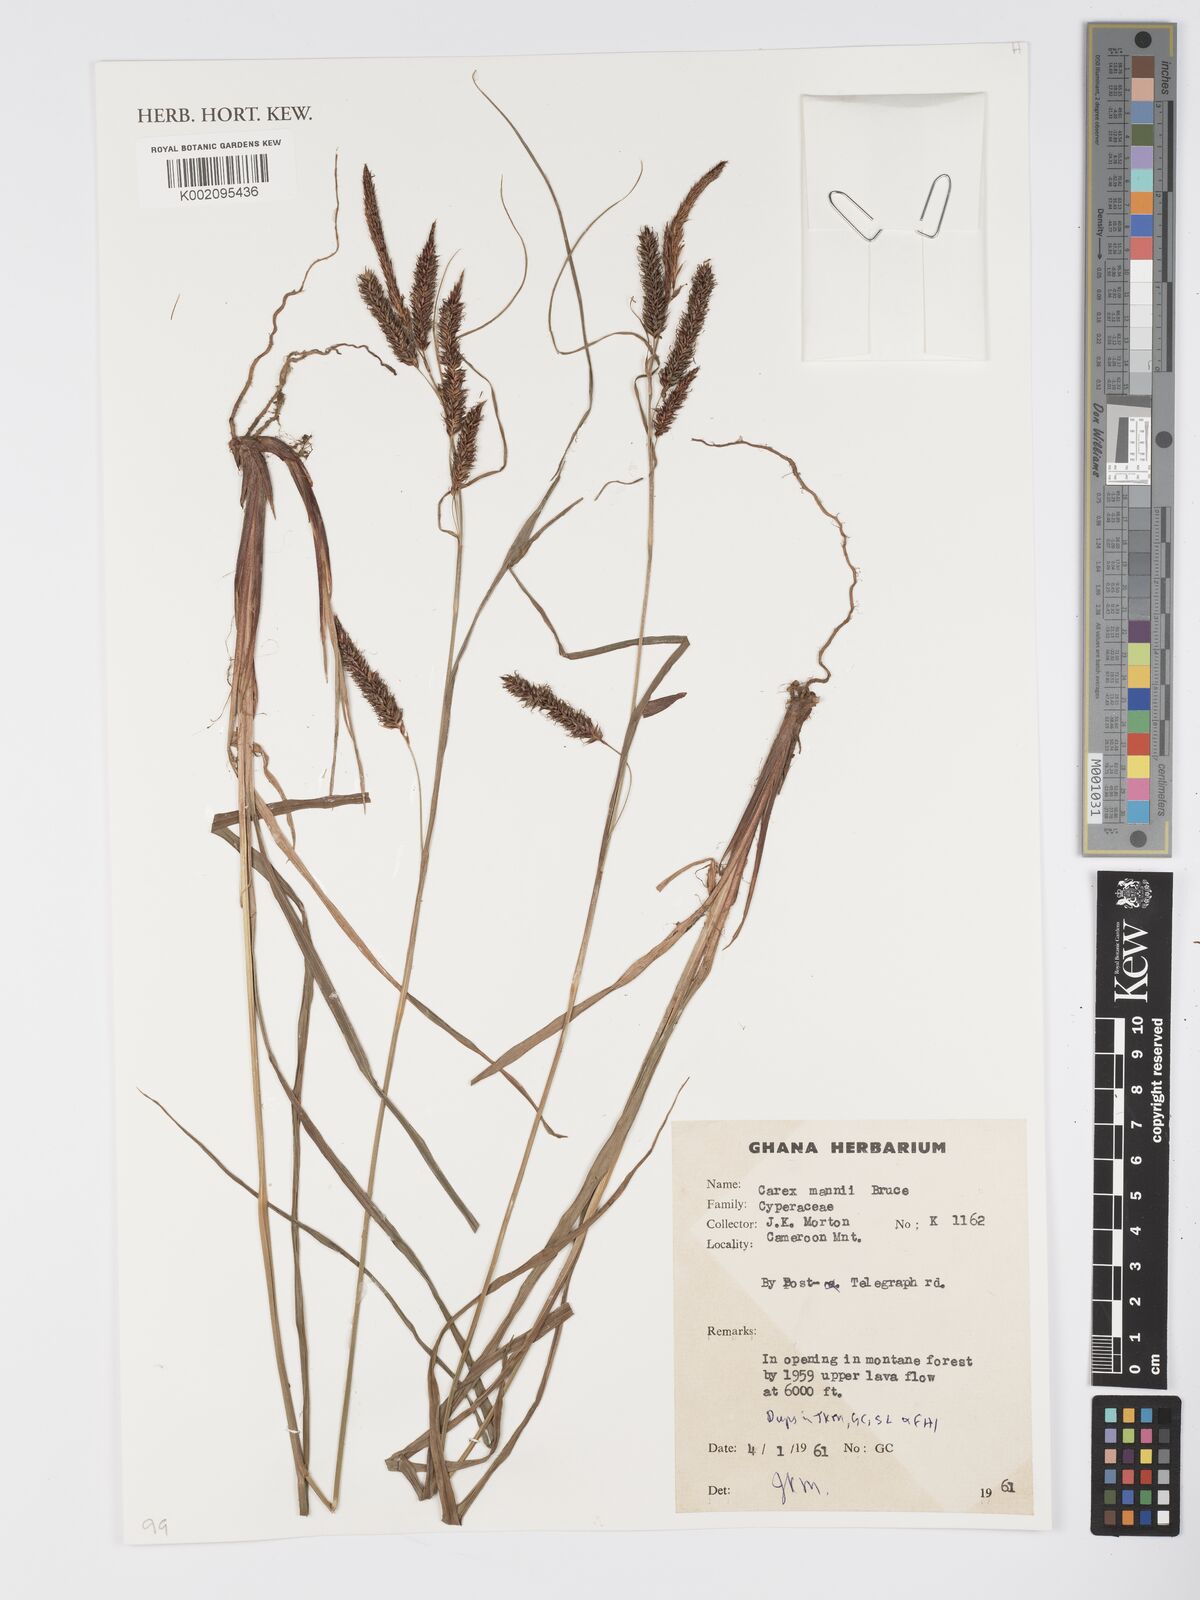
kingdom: Plantae
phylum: Tracheophyta
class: Liliopsida
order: Poales
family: Cyperaceae
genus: Carex
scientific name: Carex mannii
